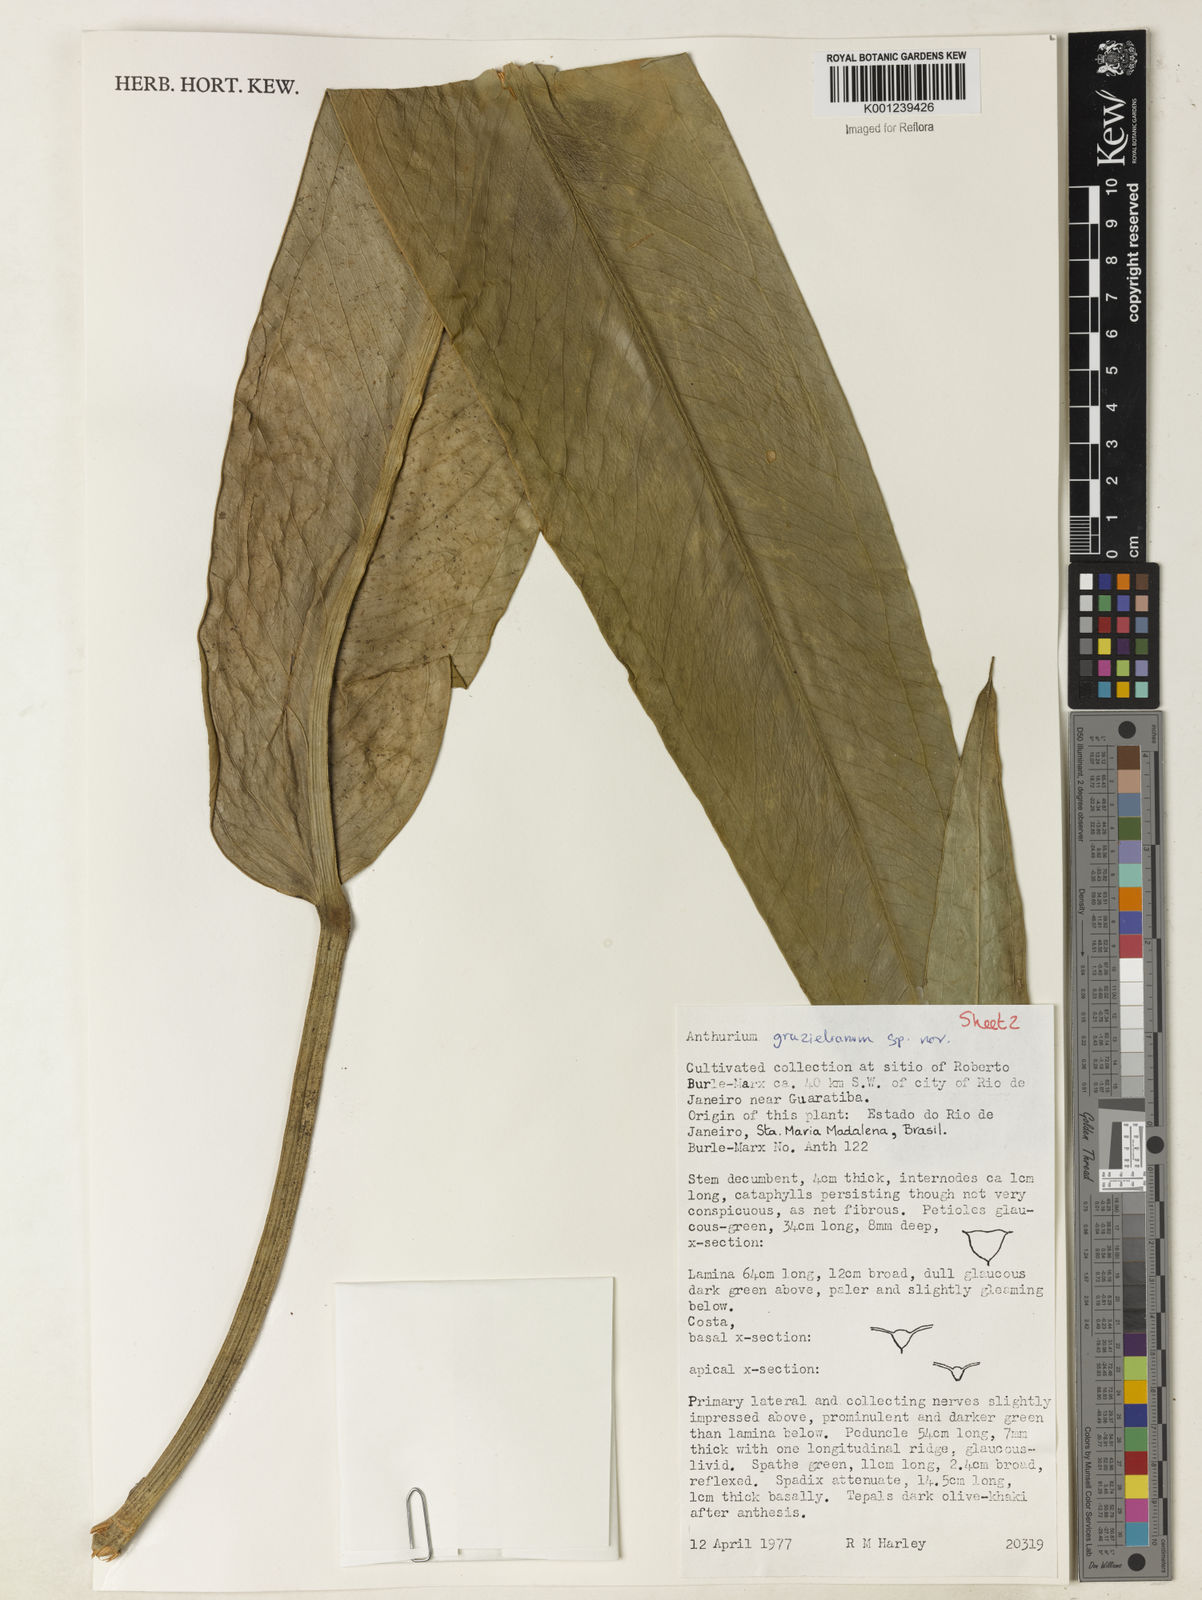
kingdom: Plantae
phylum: Tracheophyta
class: Liliopsida
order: Alismatales
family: Araceae
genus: Anthurium
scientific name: Anthurium
